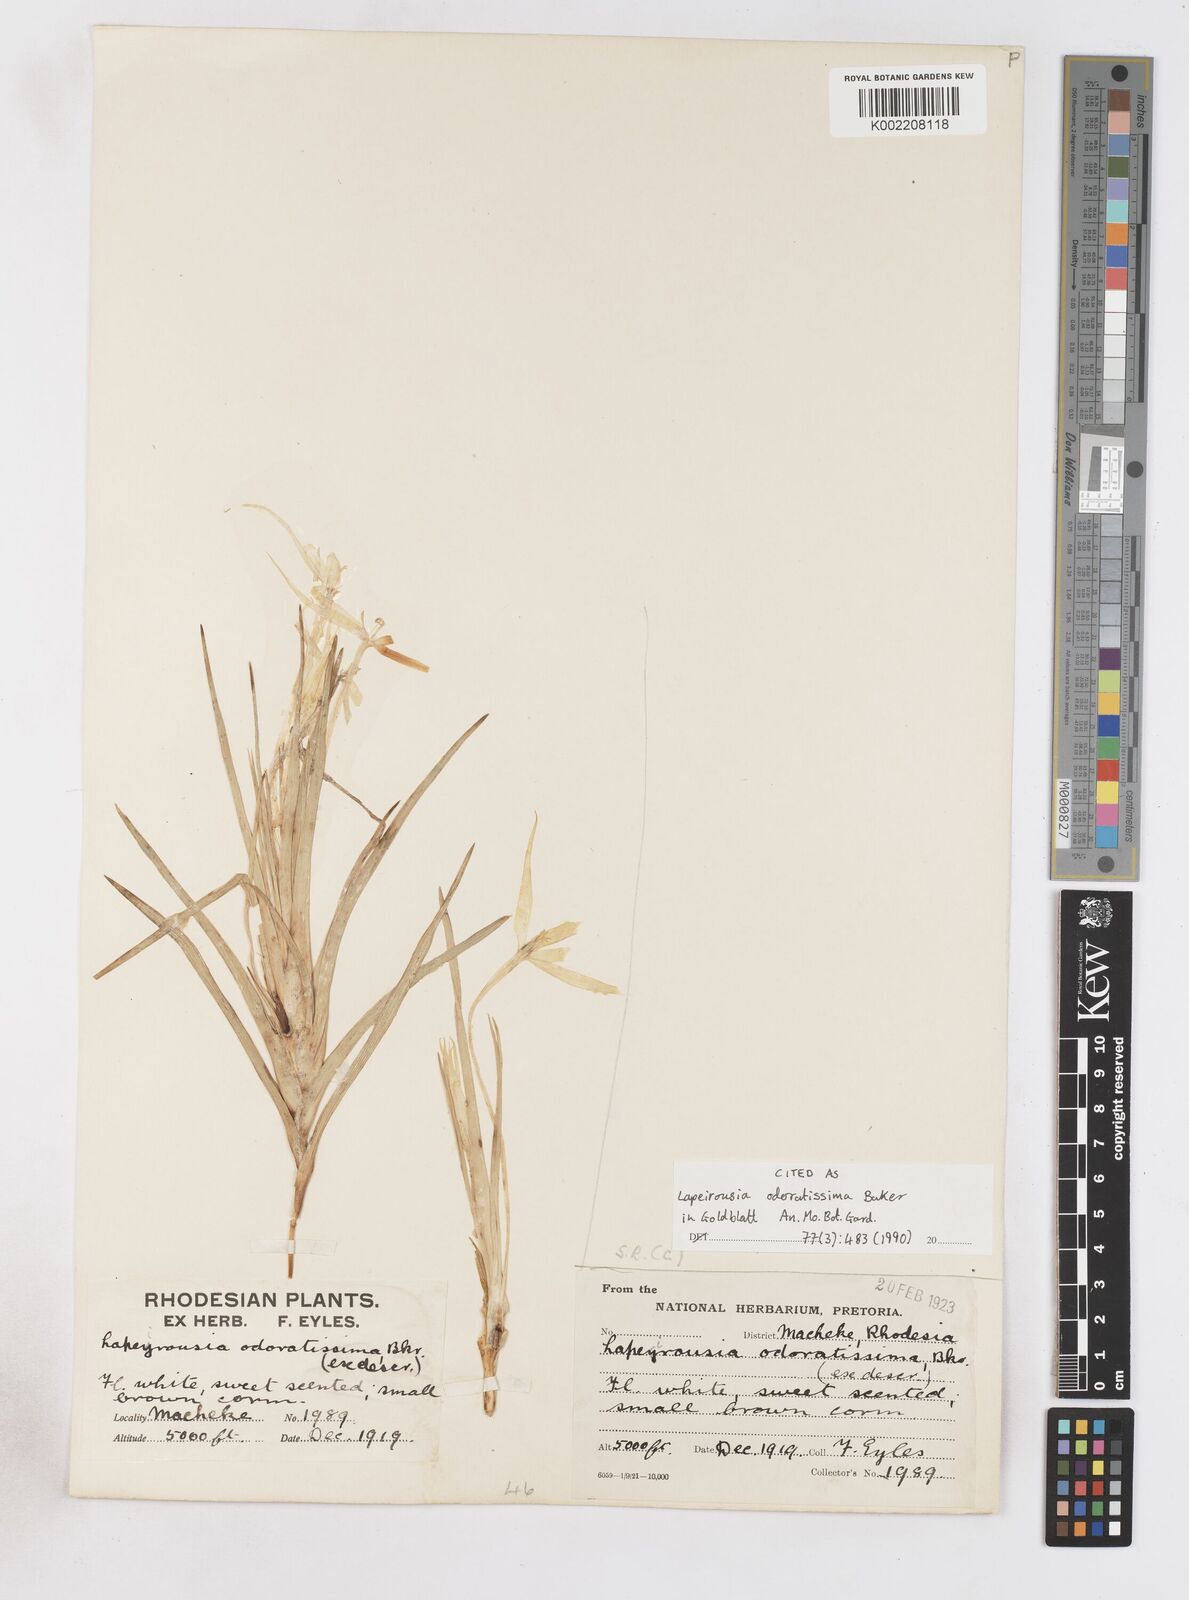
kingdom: Plantae
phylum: Tracheophyta
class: Liliopsida
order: Asparagales
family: Iridaceae
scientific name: Iridaceae
